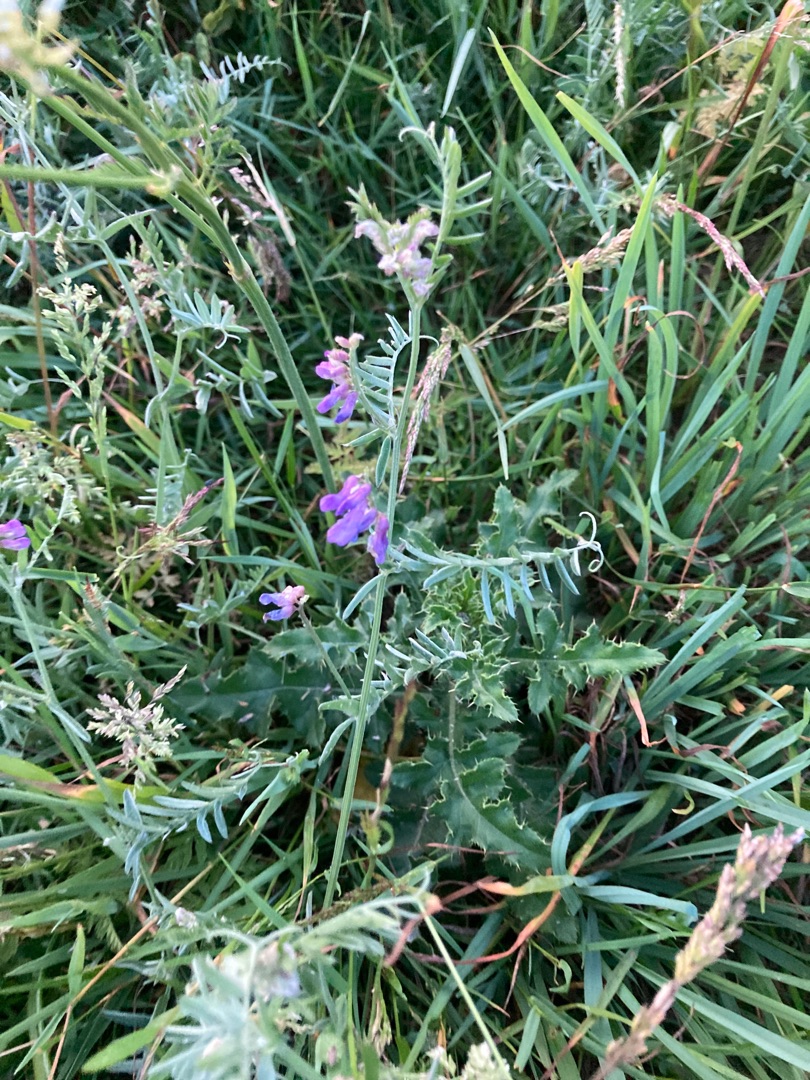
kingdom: Plantae
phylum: Tracheophyta
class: Magnoliopsida
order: Fabales
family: Fabaceae
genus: Vicia
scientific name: Vicia cracca
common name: Muse-vikke
